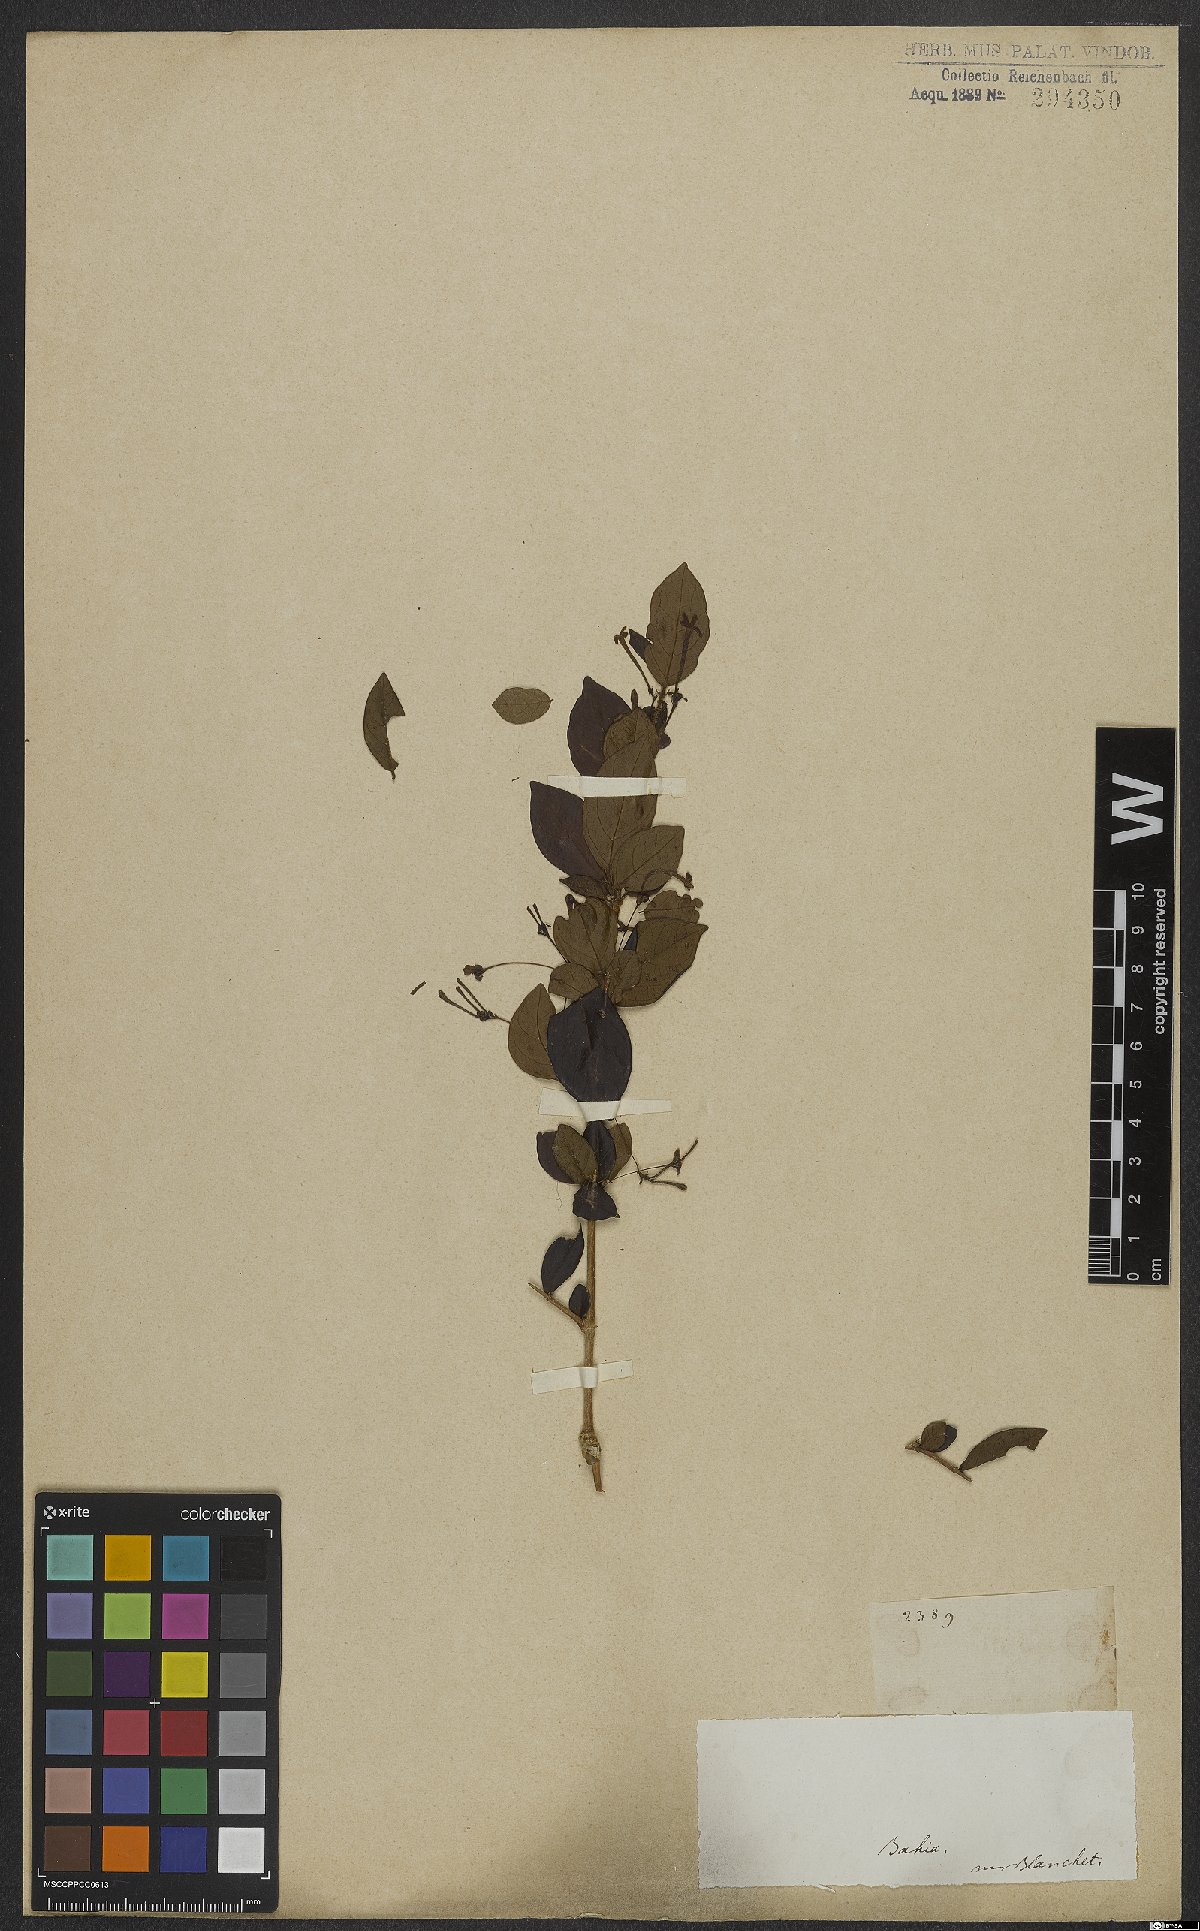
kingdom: Plantae
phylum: Tracheophyta
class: Magnoliopsida
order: Gentianales
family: Rubiaceae
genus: Chomelia
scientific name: Chomelia anisomeris
